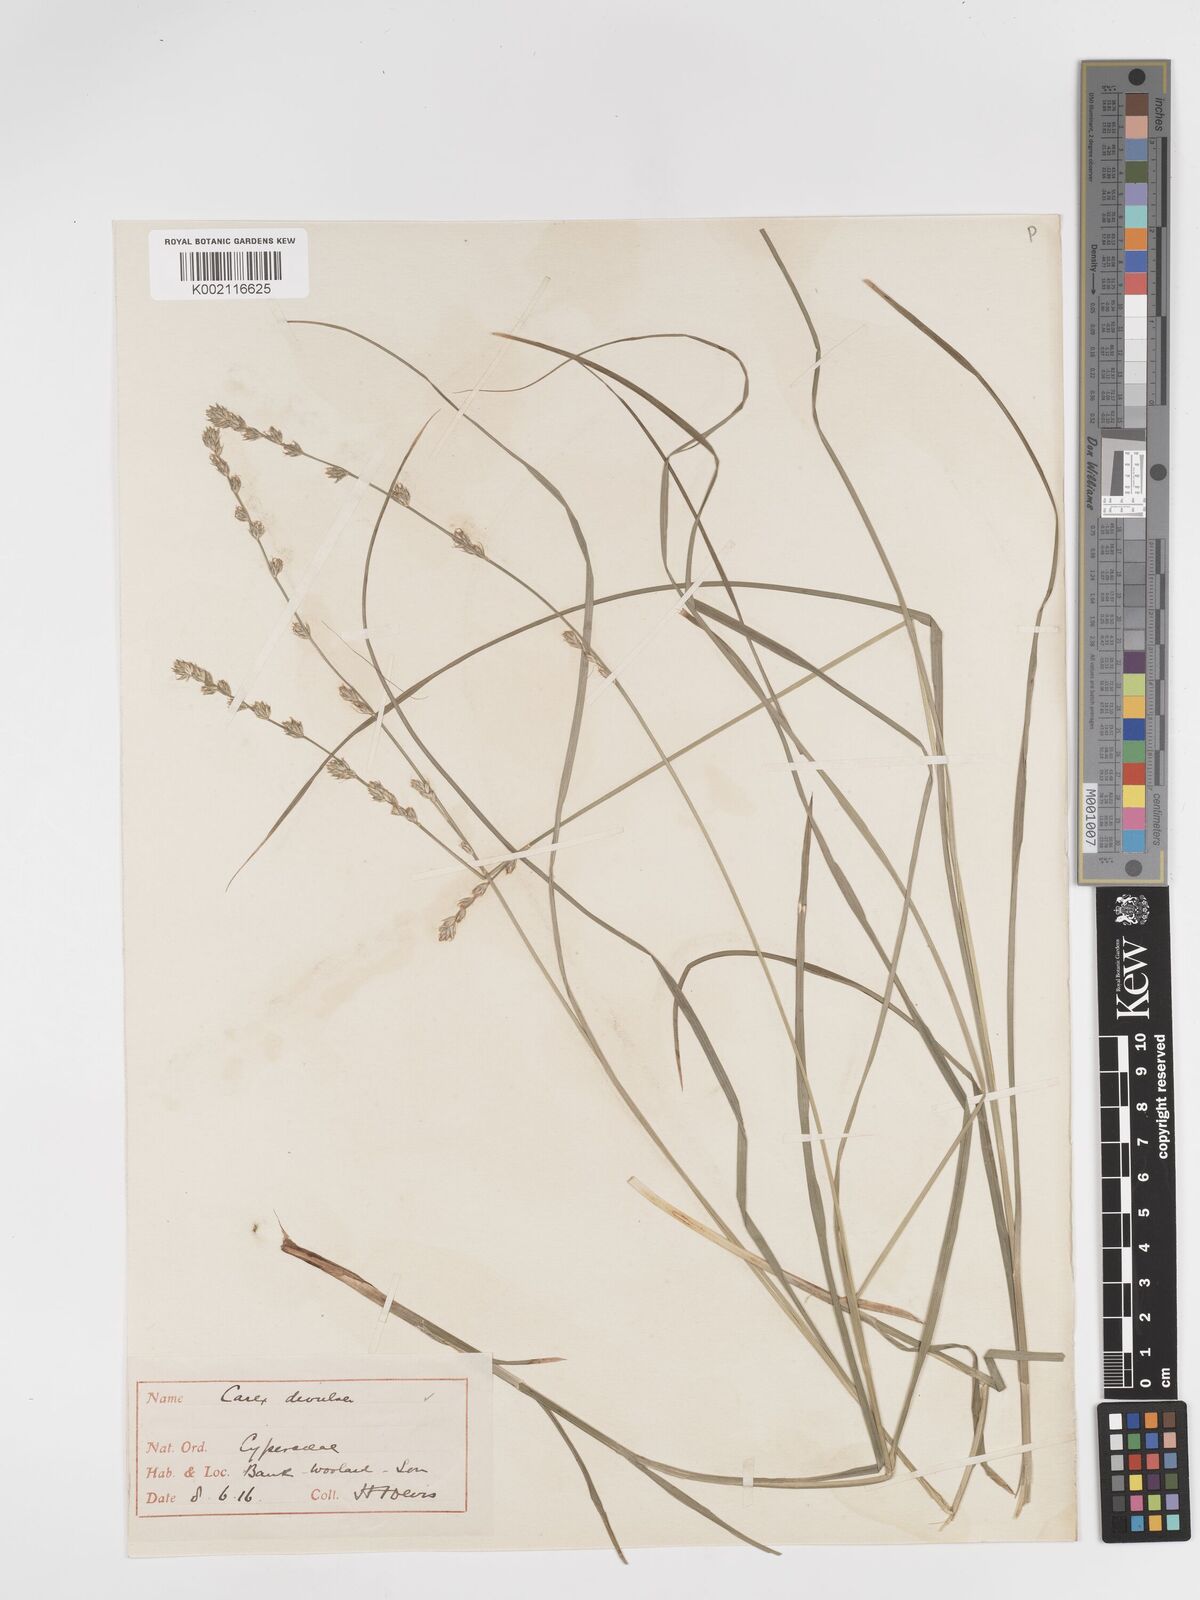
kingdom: Plantae
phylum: Tracheophyta
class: Liliopsida
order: Poales
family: Cyperaceae
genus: Carex
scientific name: Carex divulsa
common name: Grassland sedge
